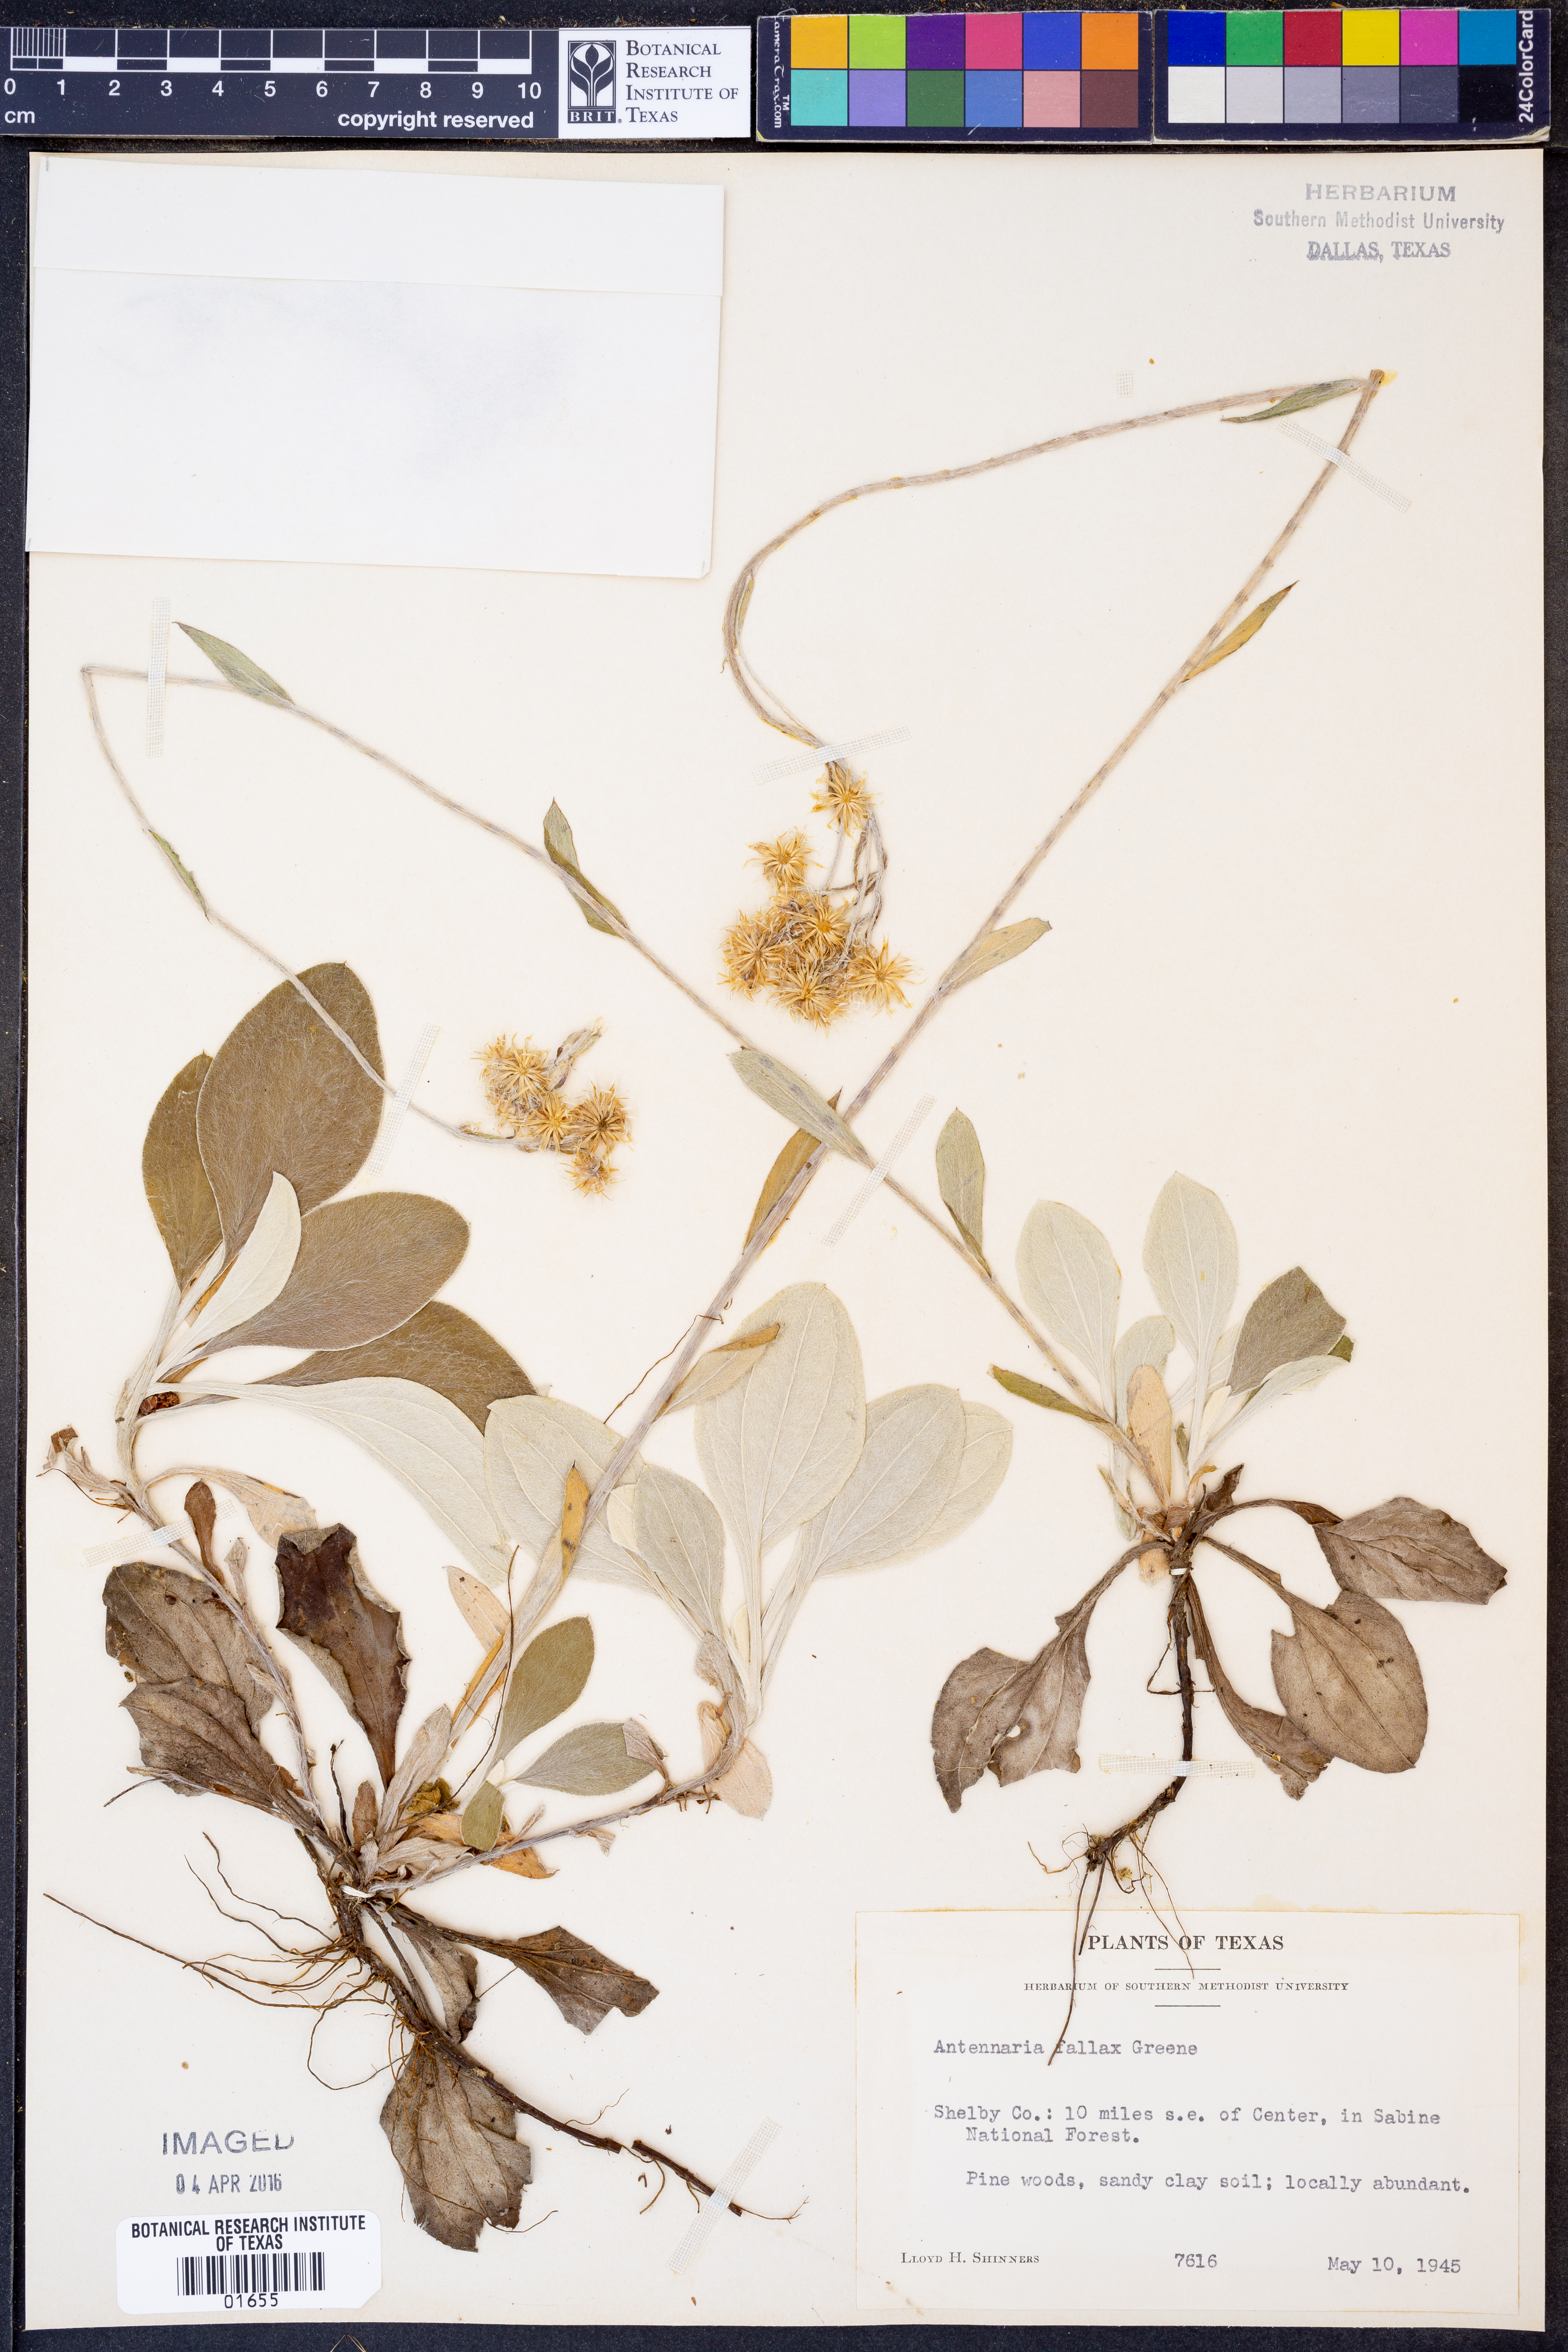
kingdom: Plantae
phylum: Tracheophyta
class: Magnoliopsida
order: Asterales
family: Asteraceae
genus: Antennaria
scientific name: Antennaria parlinii
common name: Parlin's pussytoes
